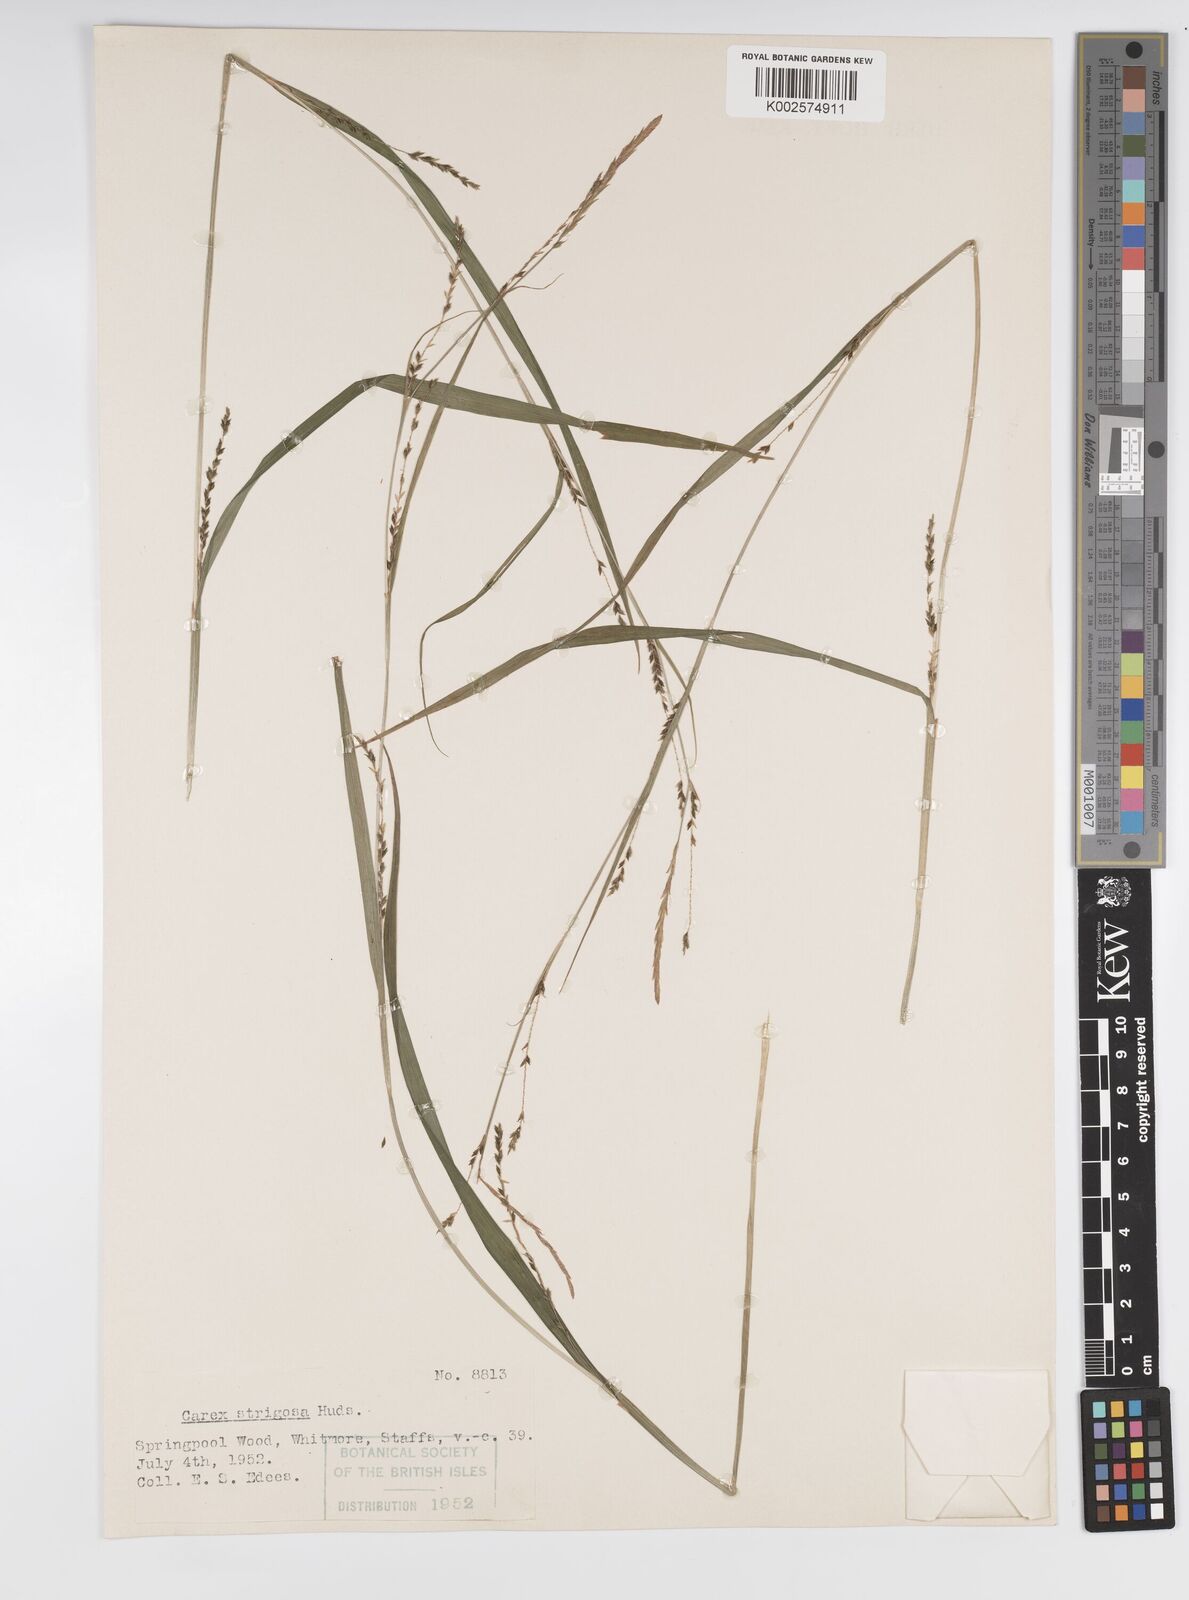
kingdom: Plantae
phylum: Tracheophyta
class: Liliopsida
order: Poales
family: Cyperaceae
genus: Carex
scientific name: Carex strigosa
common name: Thin-spiked wood-sedge
